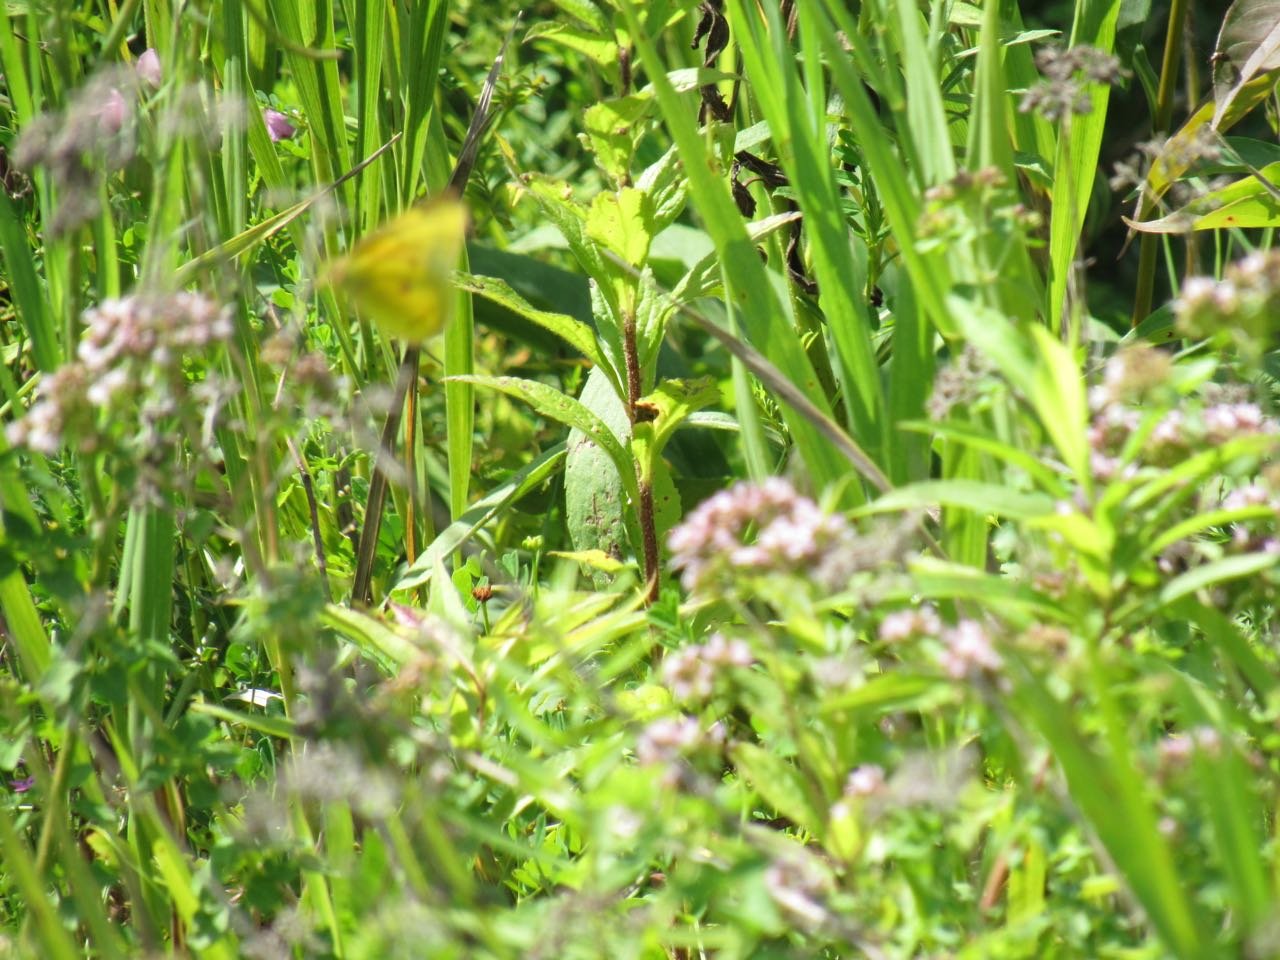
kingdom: Animalia
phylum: Arthropoda
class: Insecta
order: Lepidoptera
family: Pieridae
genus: Colias
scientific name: Colias eurytheme
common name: Orange Sulphur
